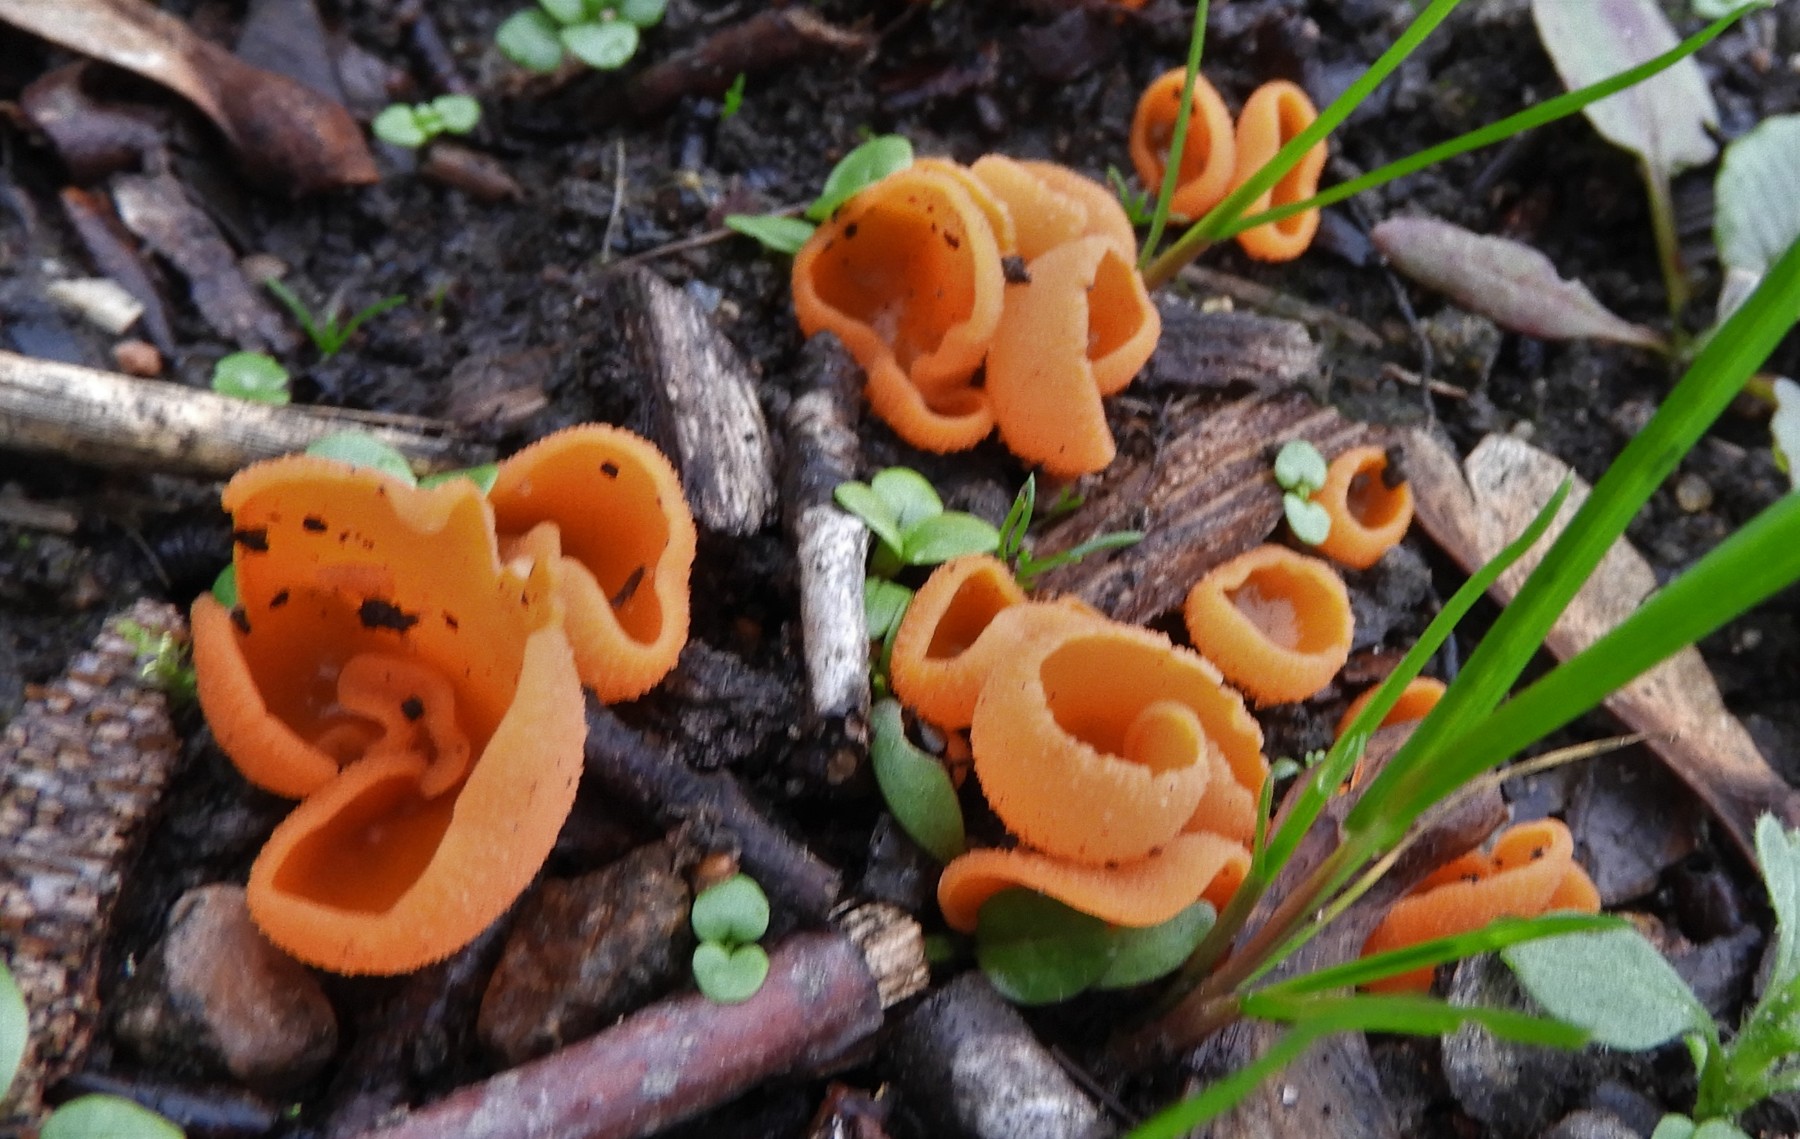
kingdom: Fungi
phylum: Ascomycota
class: Pezizomycetes
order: Pezizales
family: Pyronemataceae
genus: Aleuria
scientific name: Aleuria aurantia
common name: almindelig orangebæger
